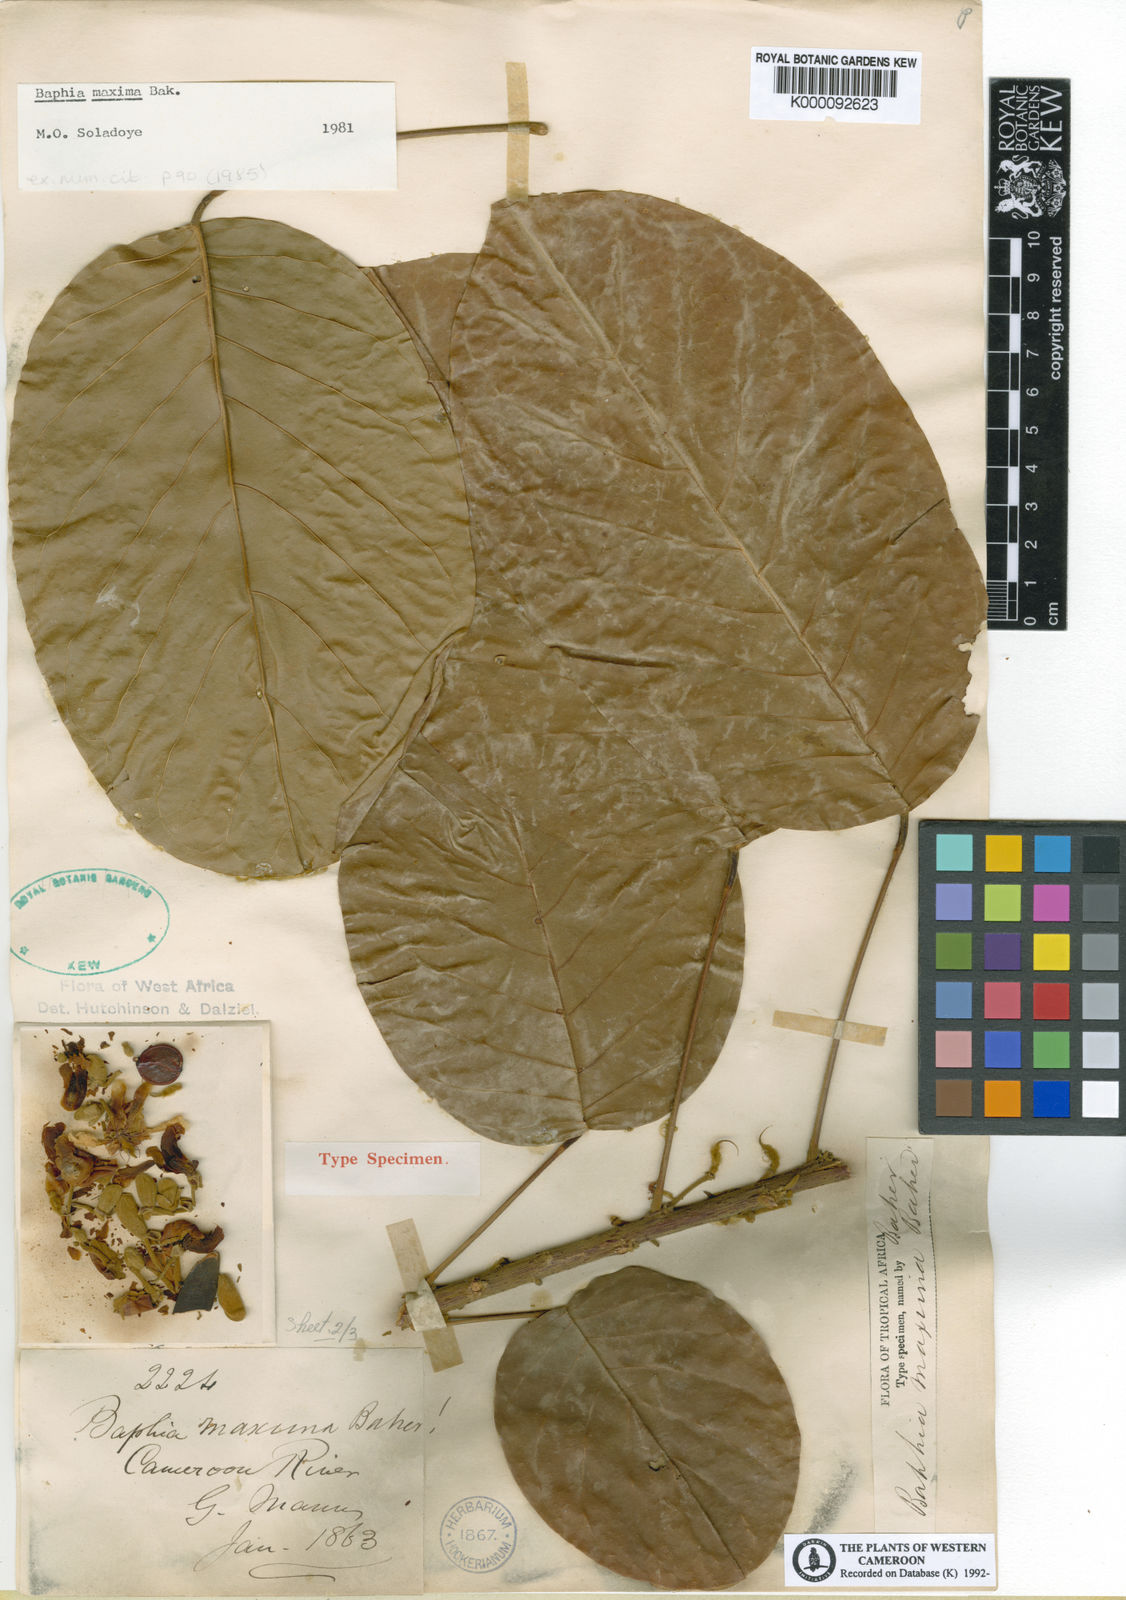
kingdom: Plantae
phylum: Tracheophyta
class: Magnoliopsida
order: Fabales
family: Fabaceae
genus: Baphia
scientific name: Baphia maxima
